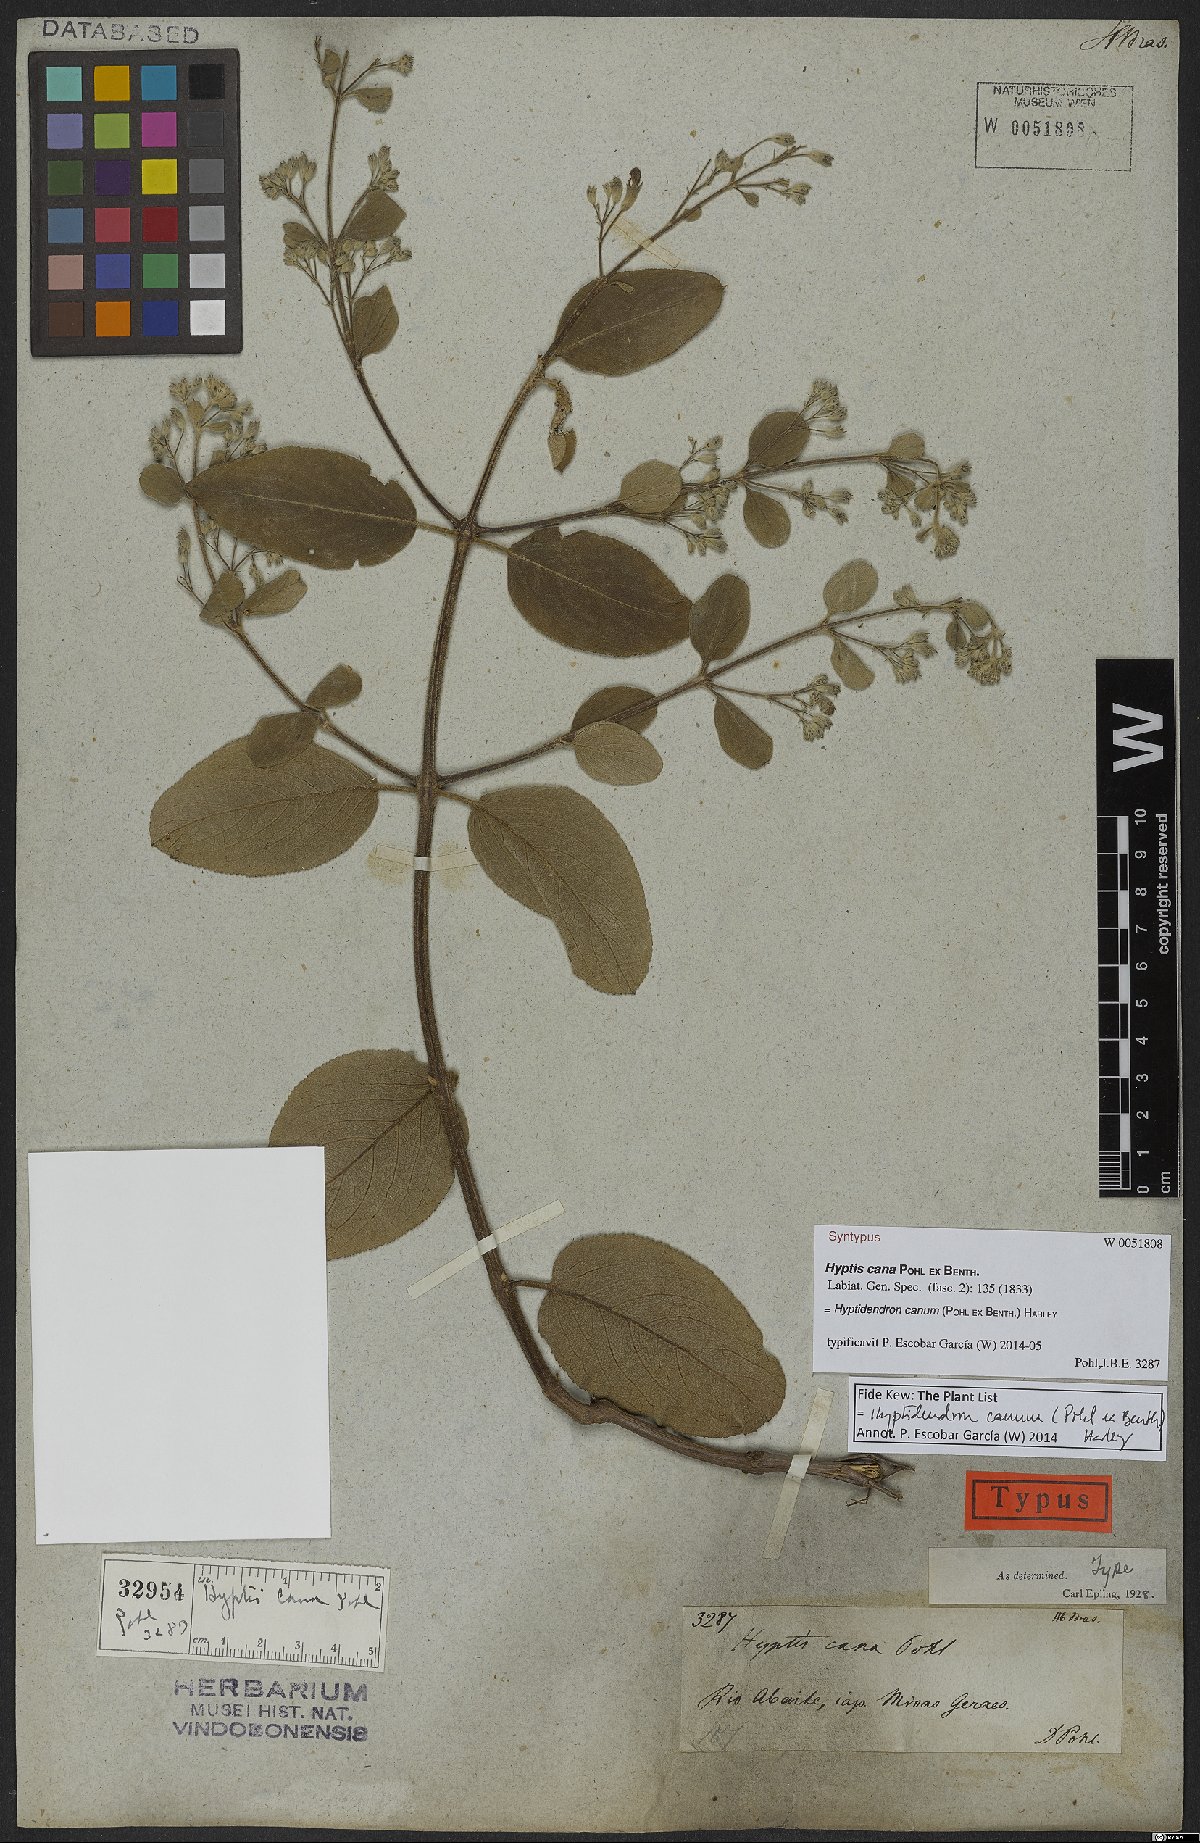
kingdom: Plantae
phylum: Tracheophyta
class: Magnoliopsida
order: Lamiales
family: Lamiaceae
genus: Hyptidendron
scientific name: Hyptidendron canum
